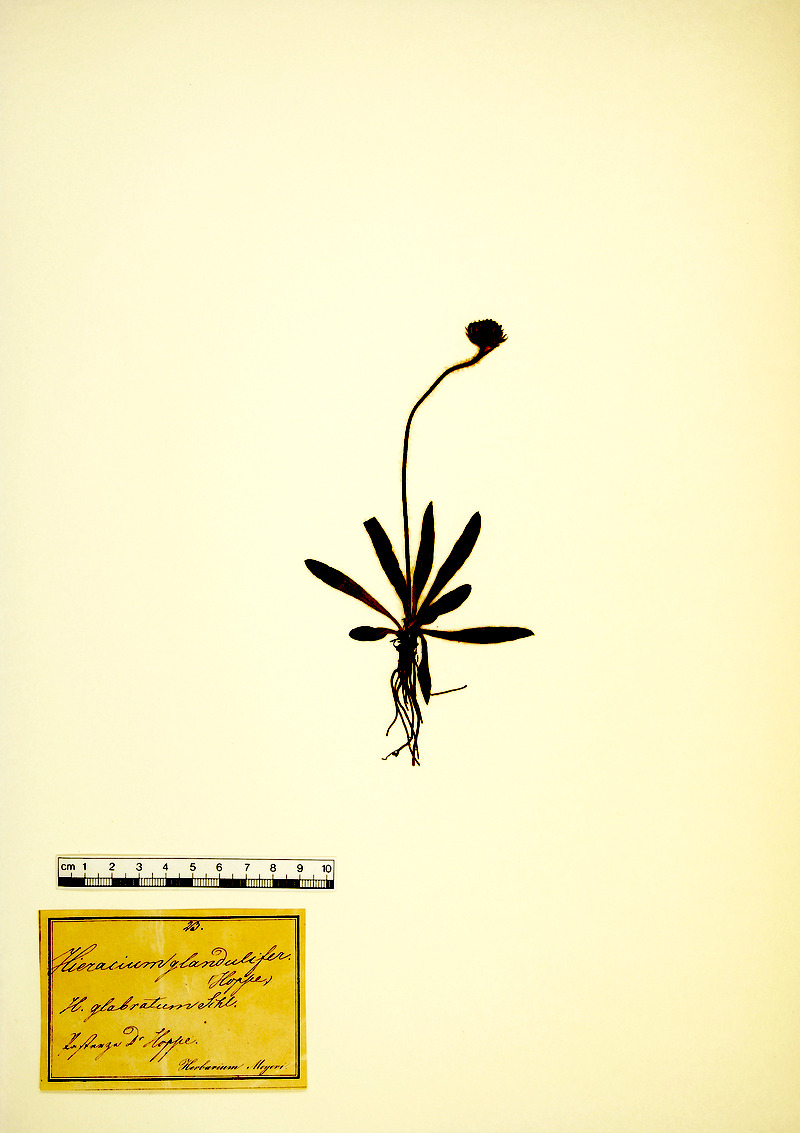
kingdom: Plantae
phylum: Tracheophyta
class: Magnoliopsida
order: Asterales
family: Asteraceae
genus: Hieracium
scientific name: Hieracium piliferum
